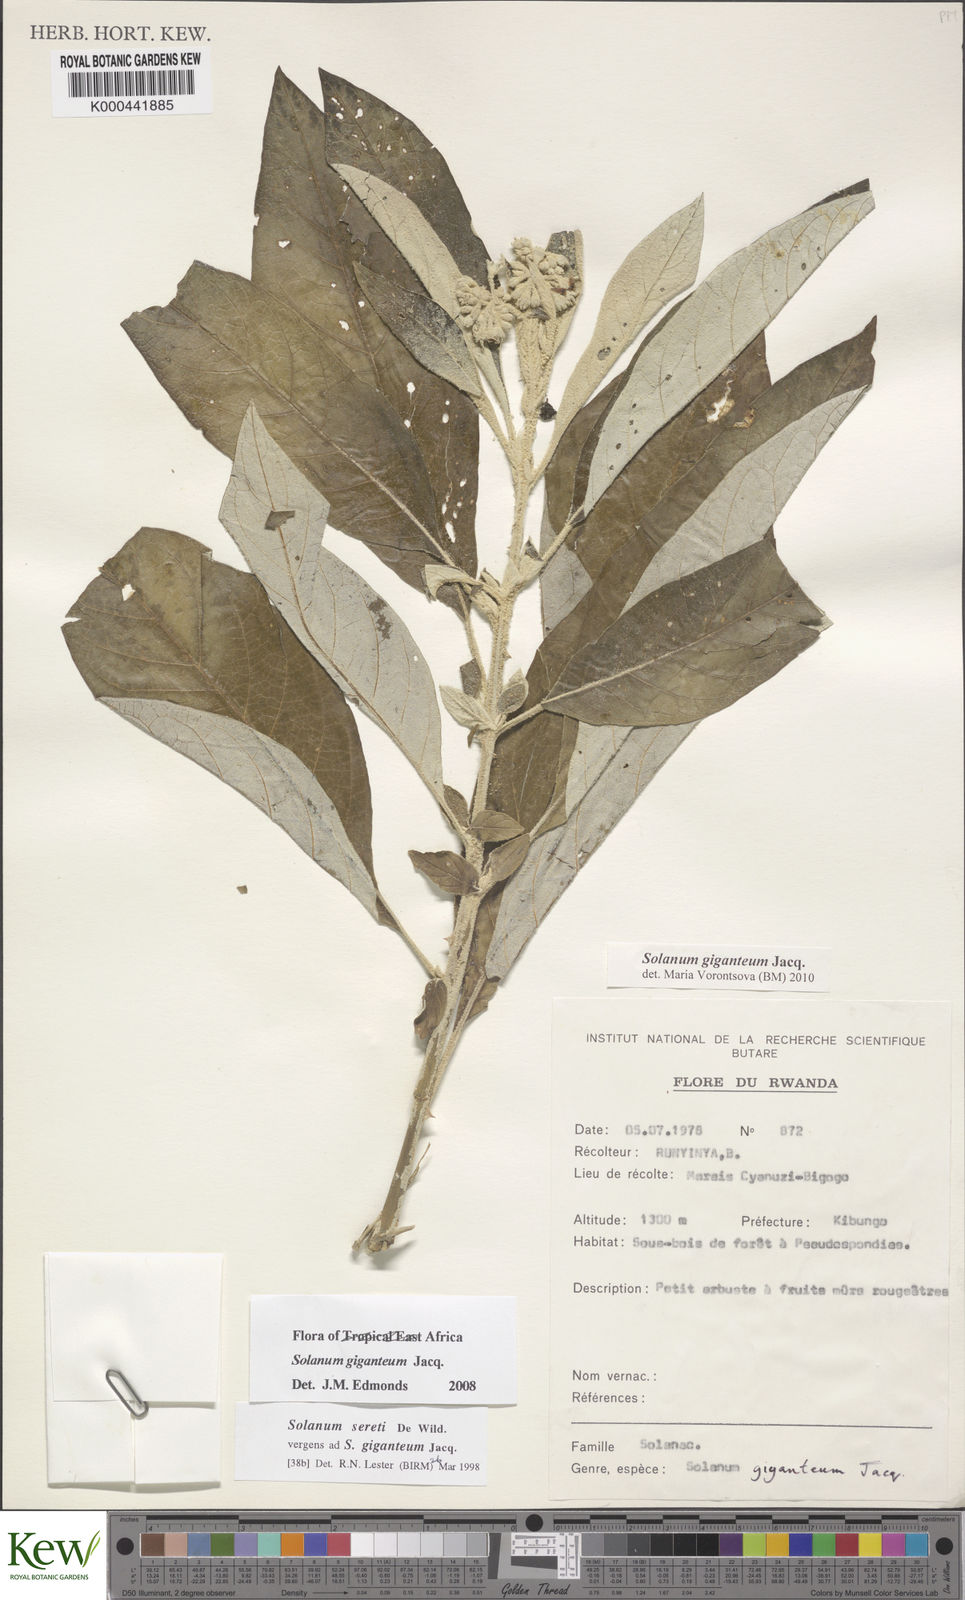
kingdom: Plantae
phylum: Tracheophyta
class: Magnoliopsida
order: Solanales
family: Solanaceae
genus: Solanum
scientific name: Solanum giganteum
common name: Healing-leaf-tree
